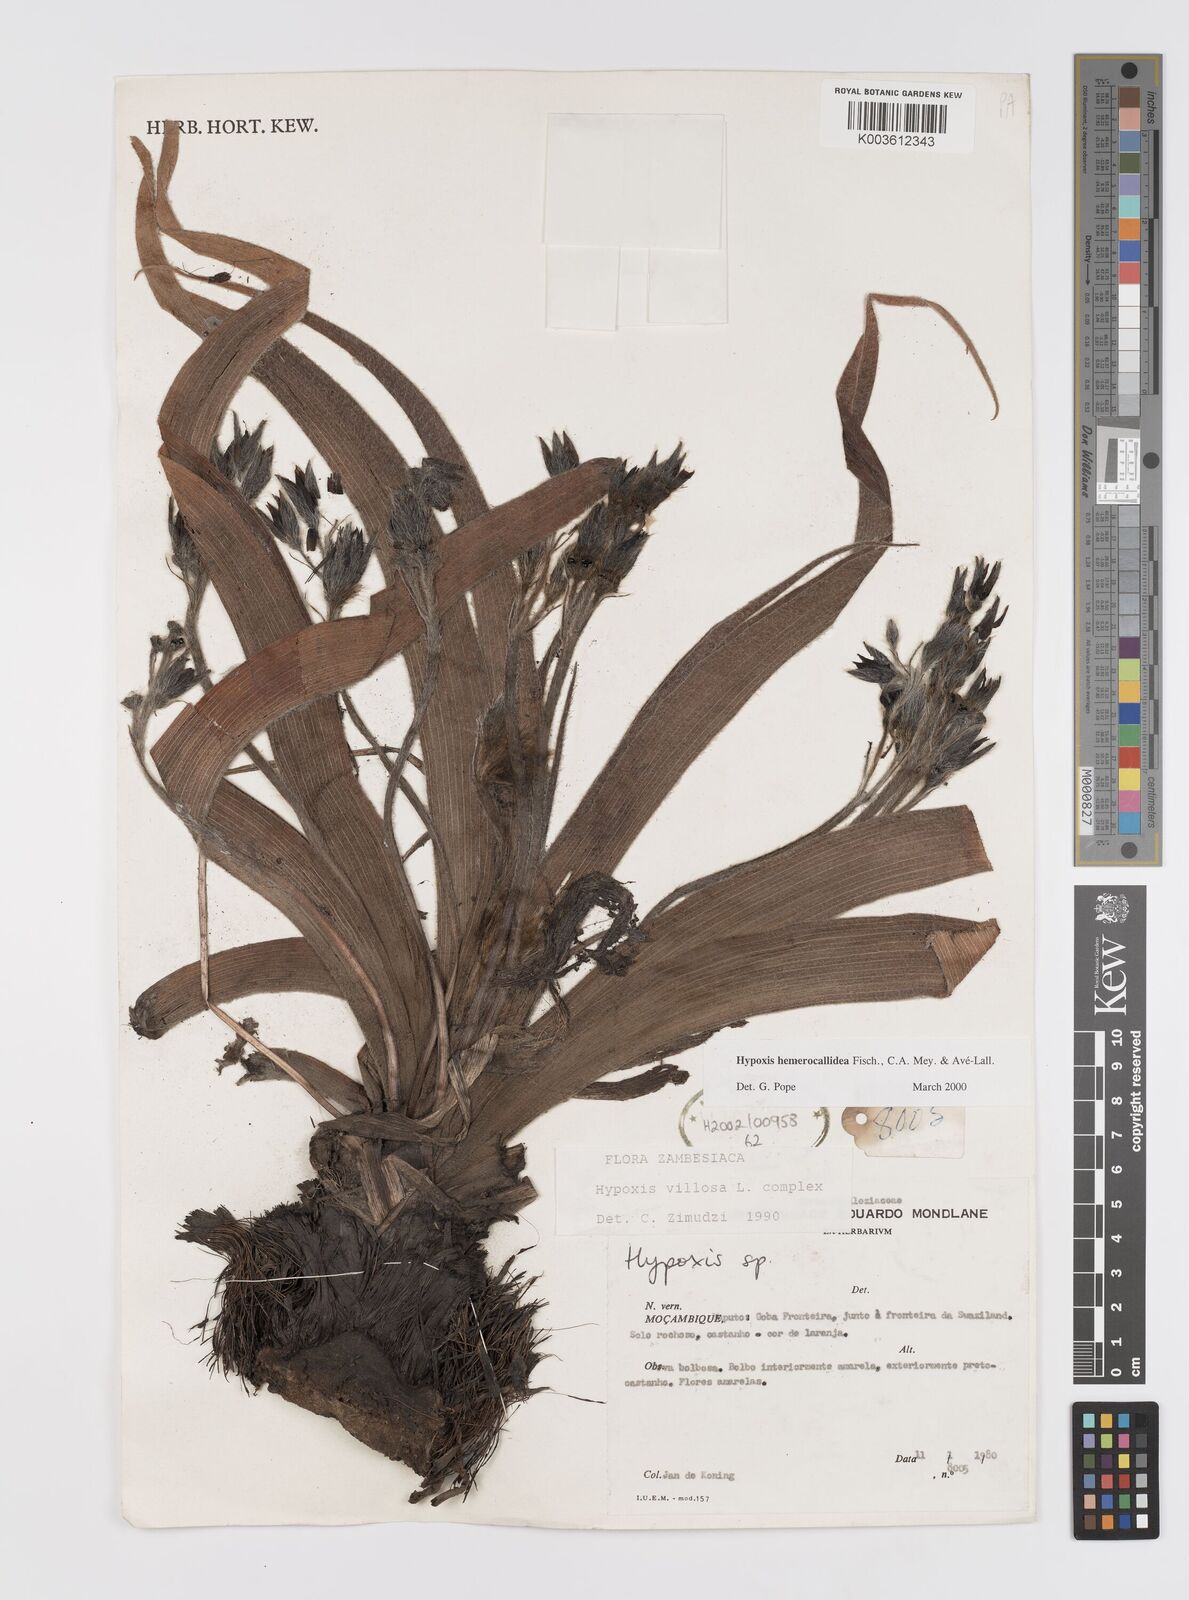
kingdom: Plantae
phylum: Tracheophyta
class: Liliopsida
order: Asparagales
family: Hypoxidaceae
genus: Hypoxis
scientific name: Hypoxis hemerocallidea
